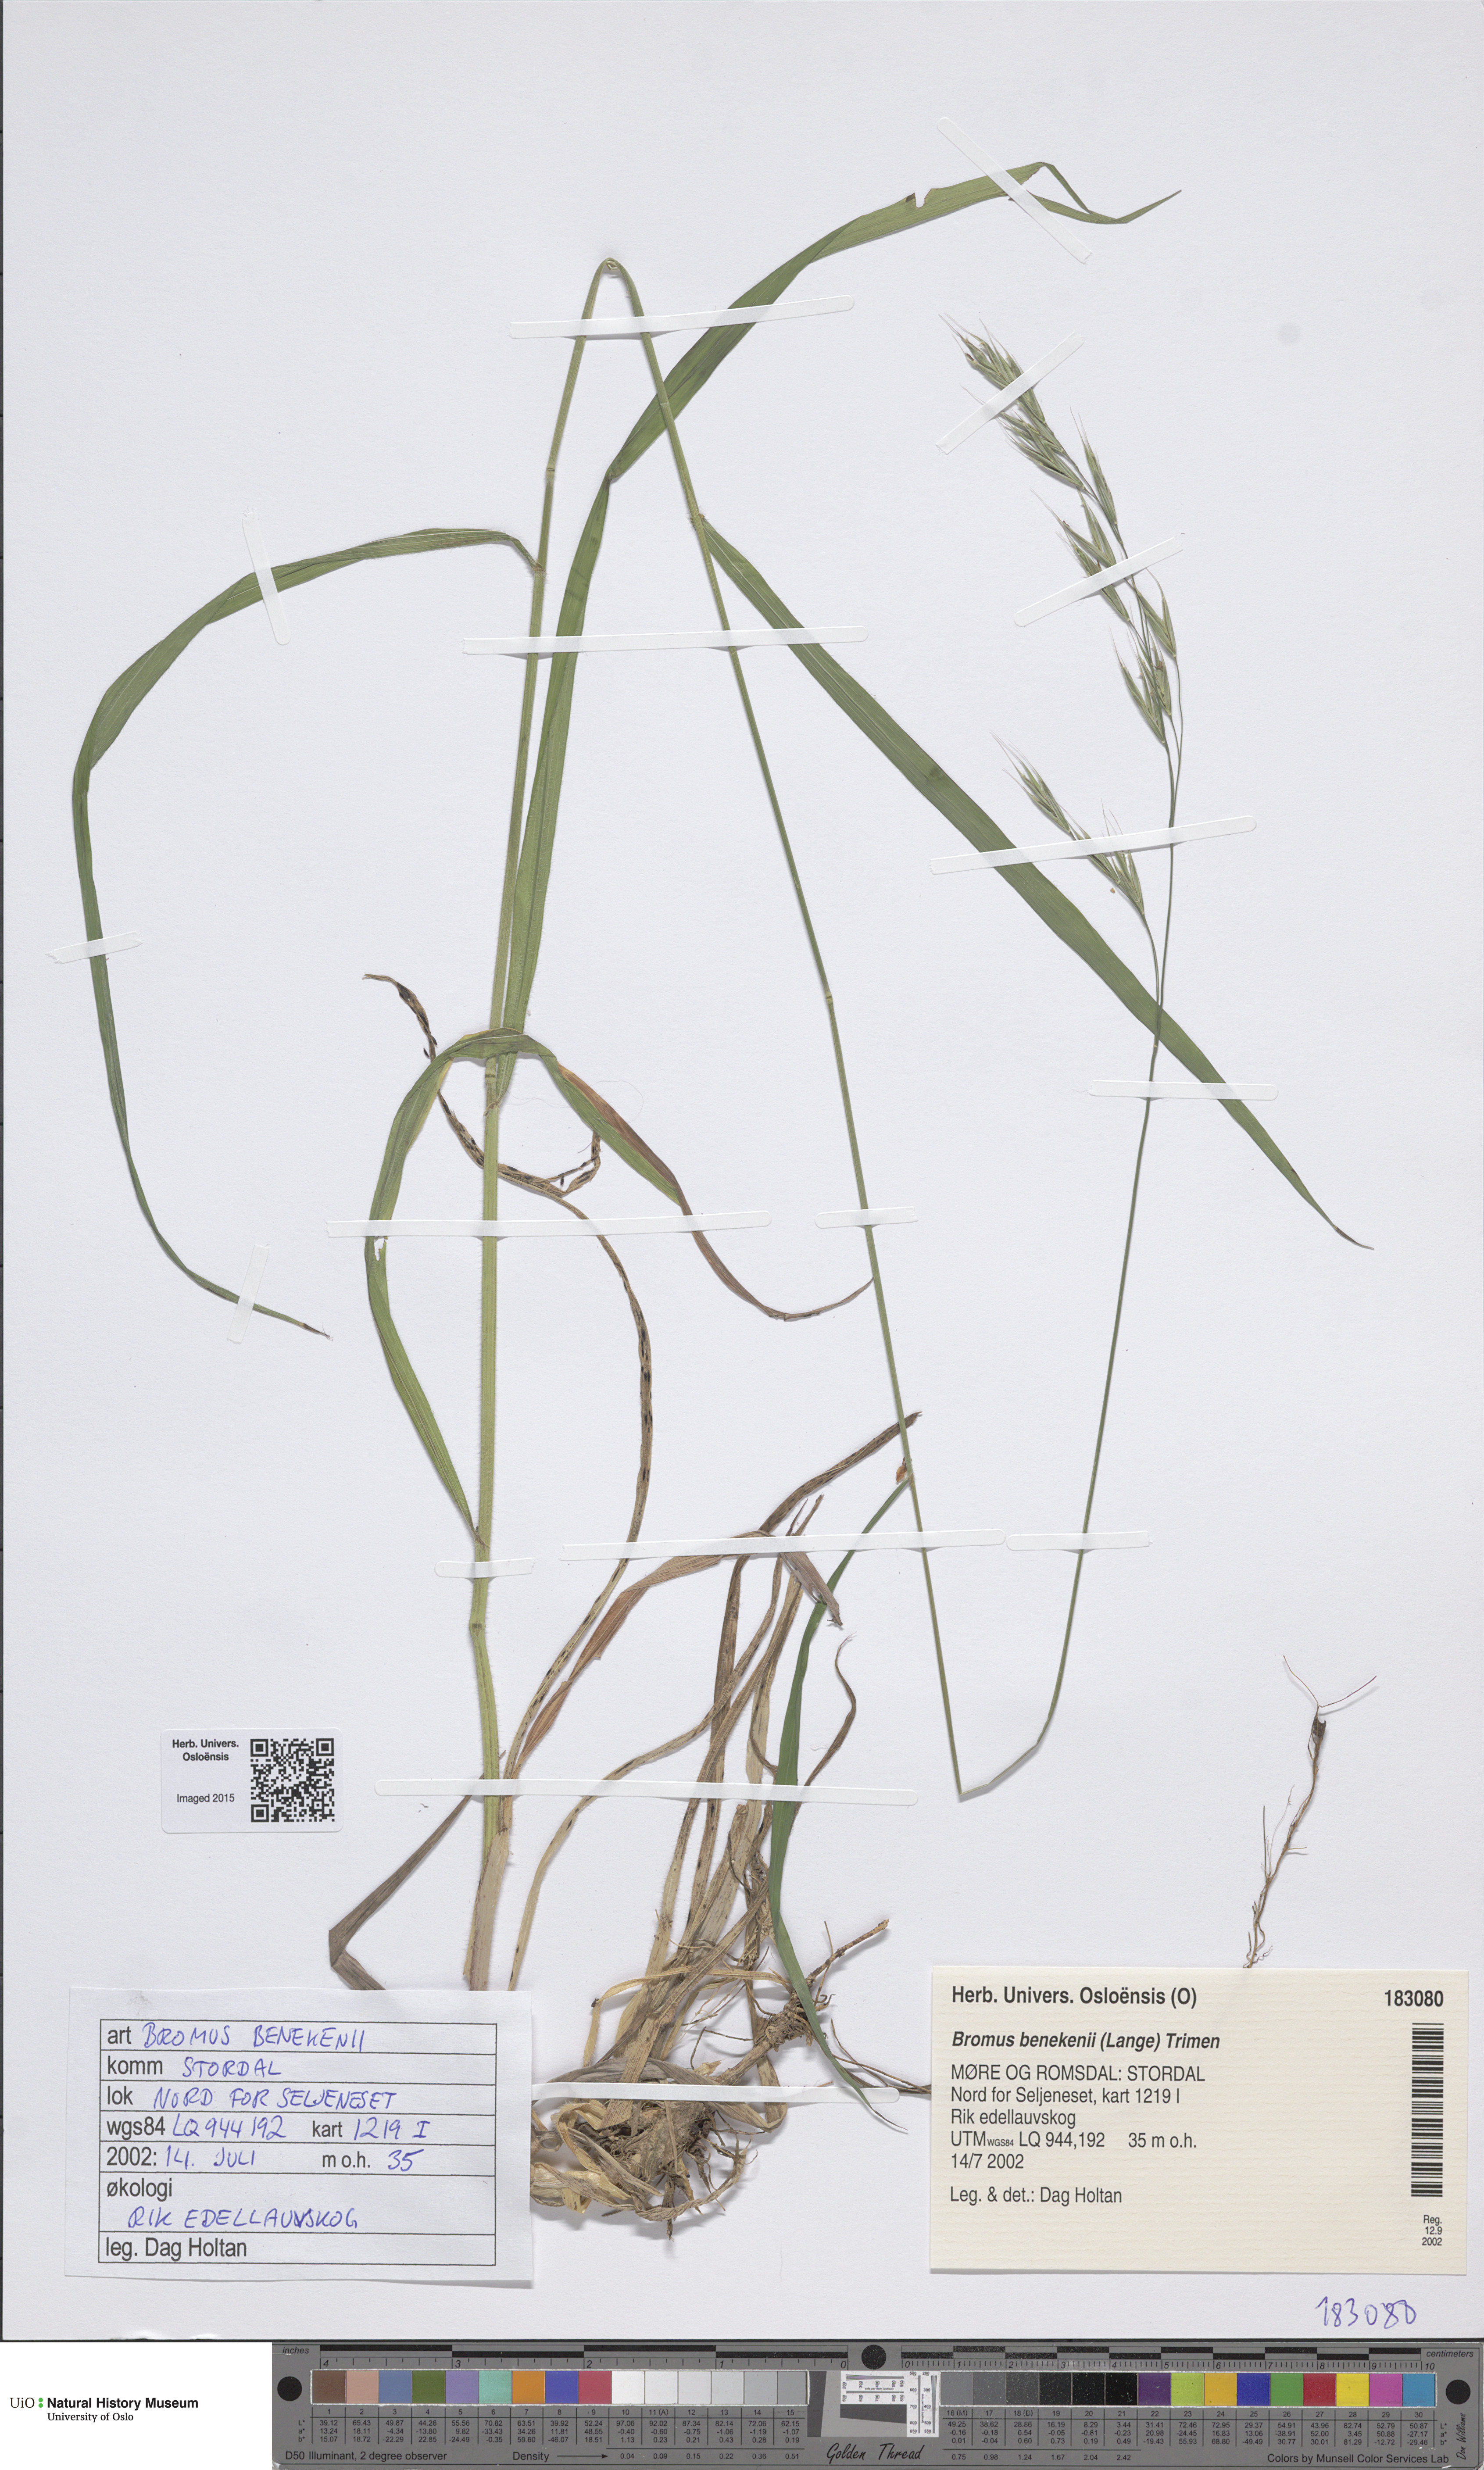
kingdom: Plantae
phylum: Tracheophyta
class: Liliopsida
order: Poales
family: Poaceae
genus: Bromus
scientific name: Bromus benekenii
